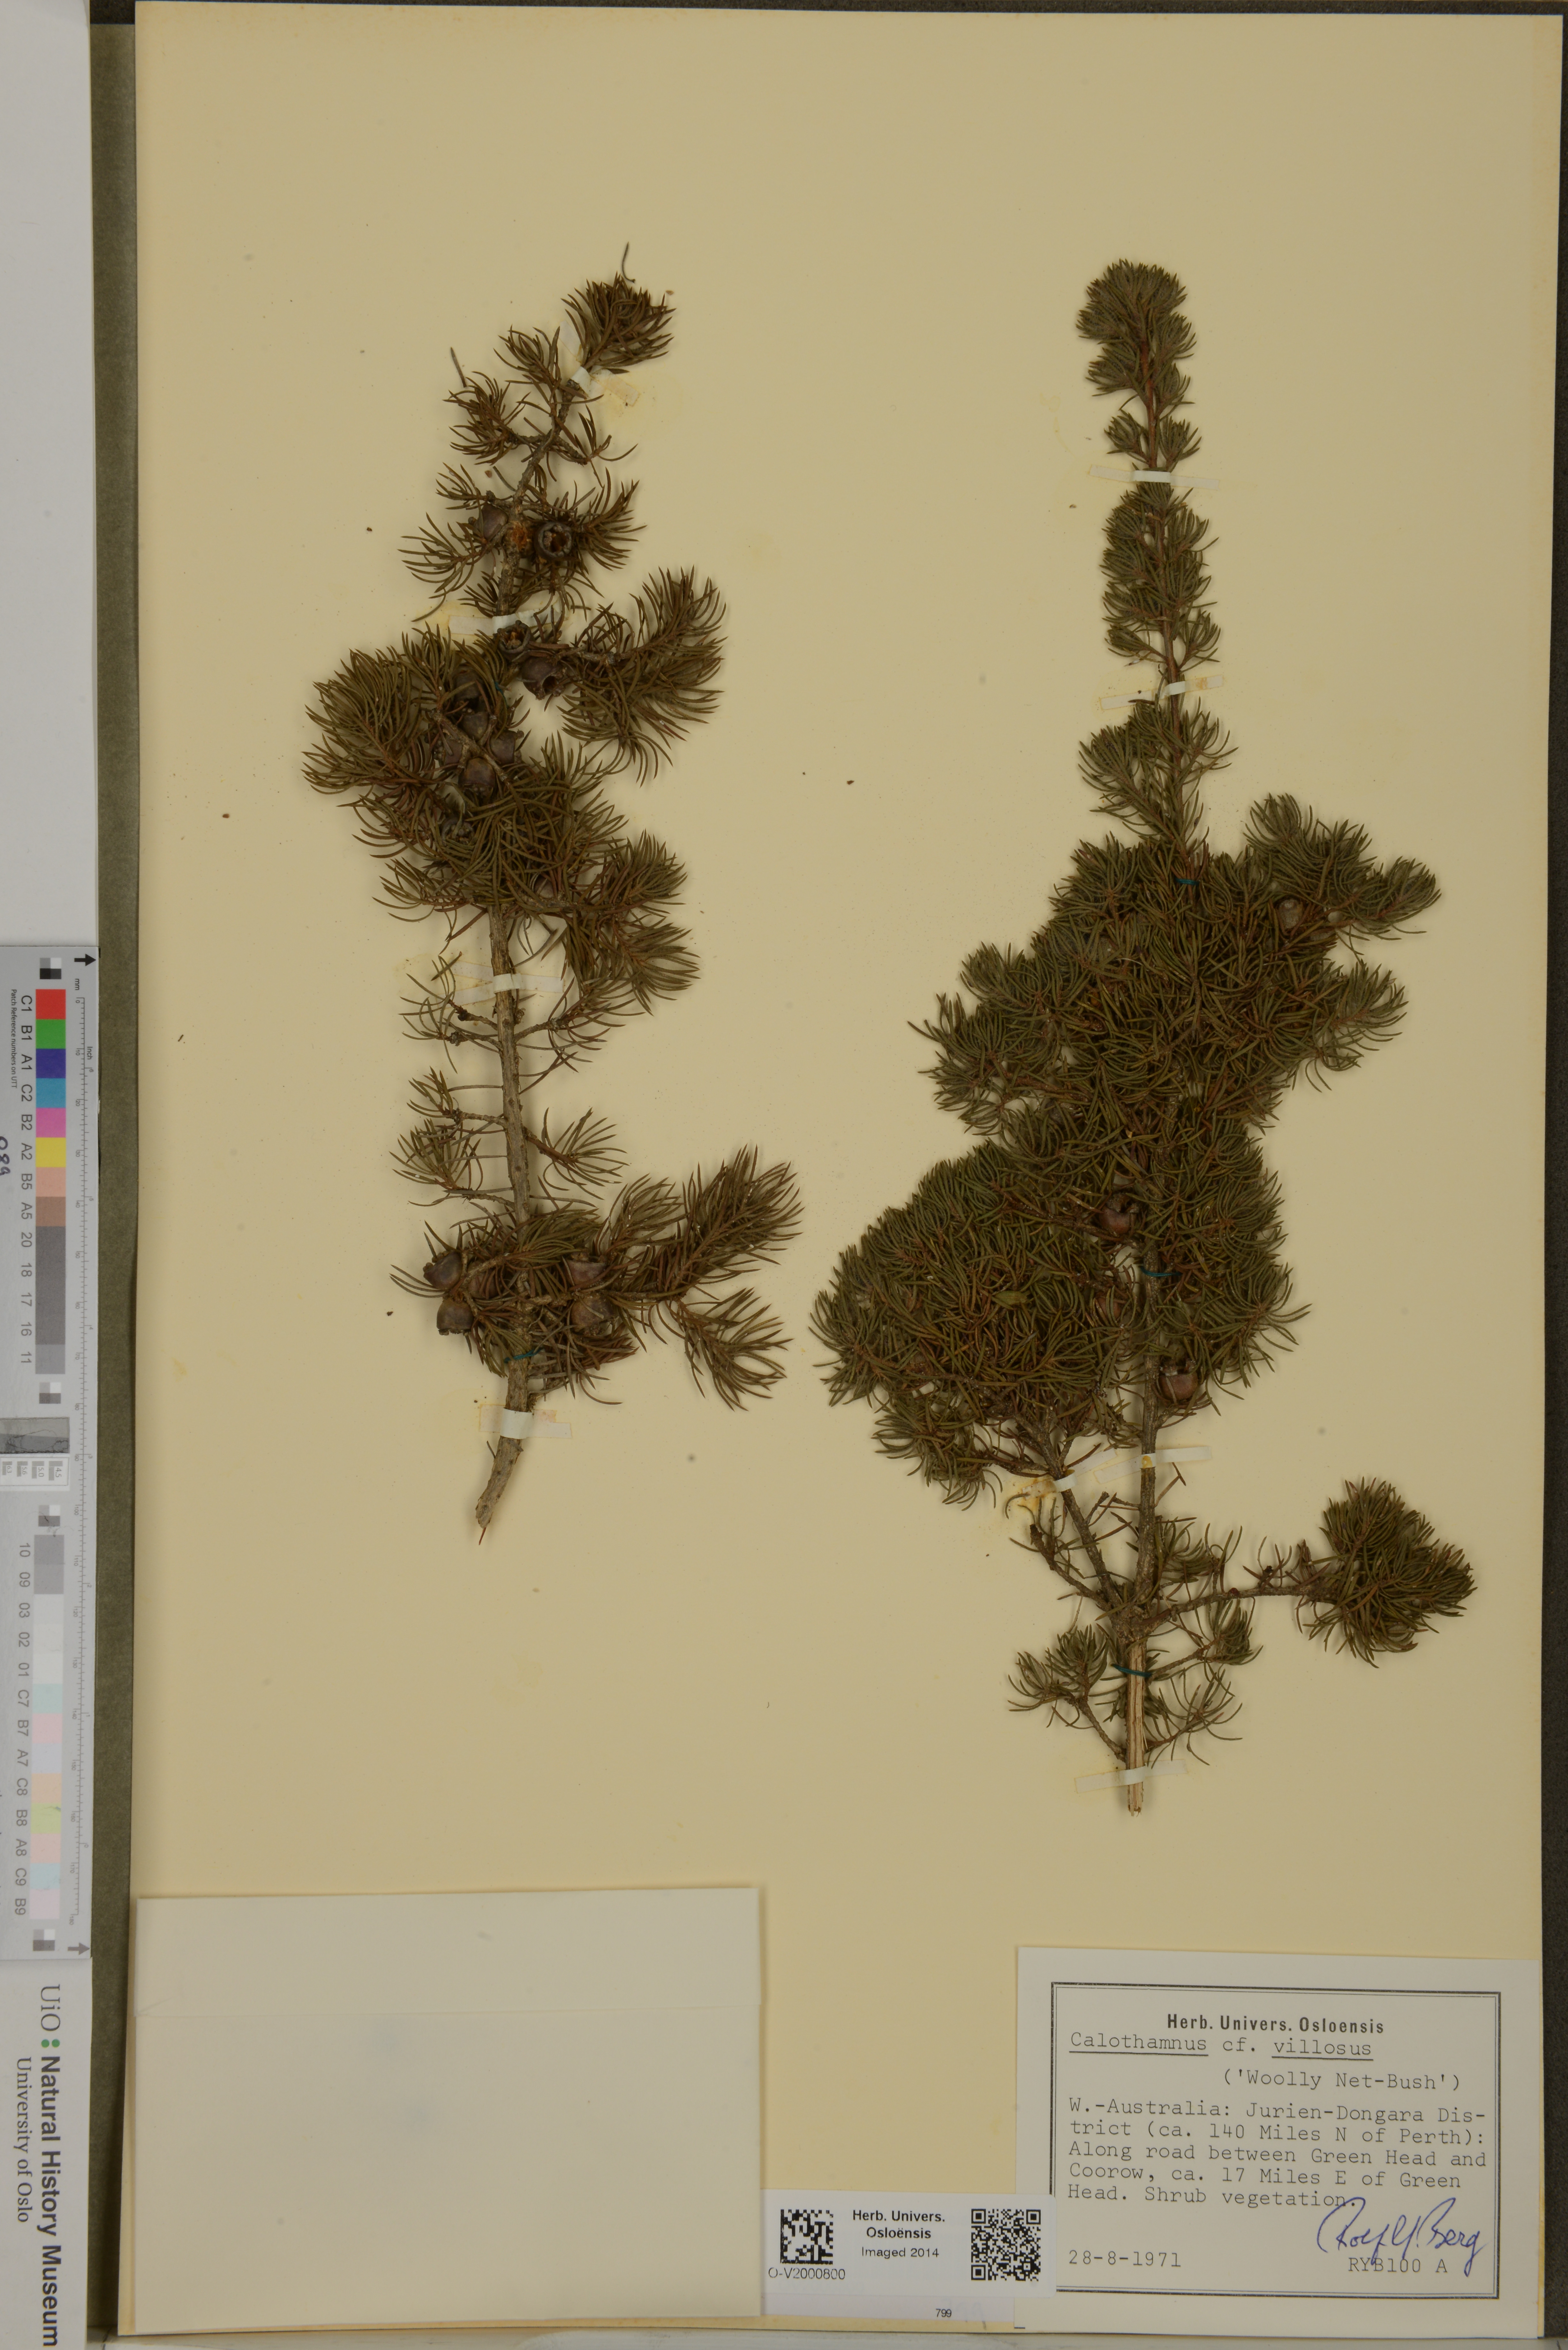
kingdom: Plantae
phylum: Tracheophyta
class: Magnoliopsida
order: Myrtales
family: Myrtaceae
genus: Melaleuca
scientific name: Melaleuca hislopii
